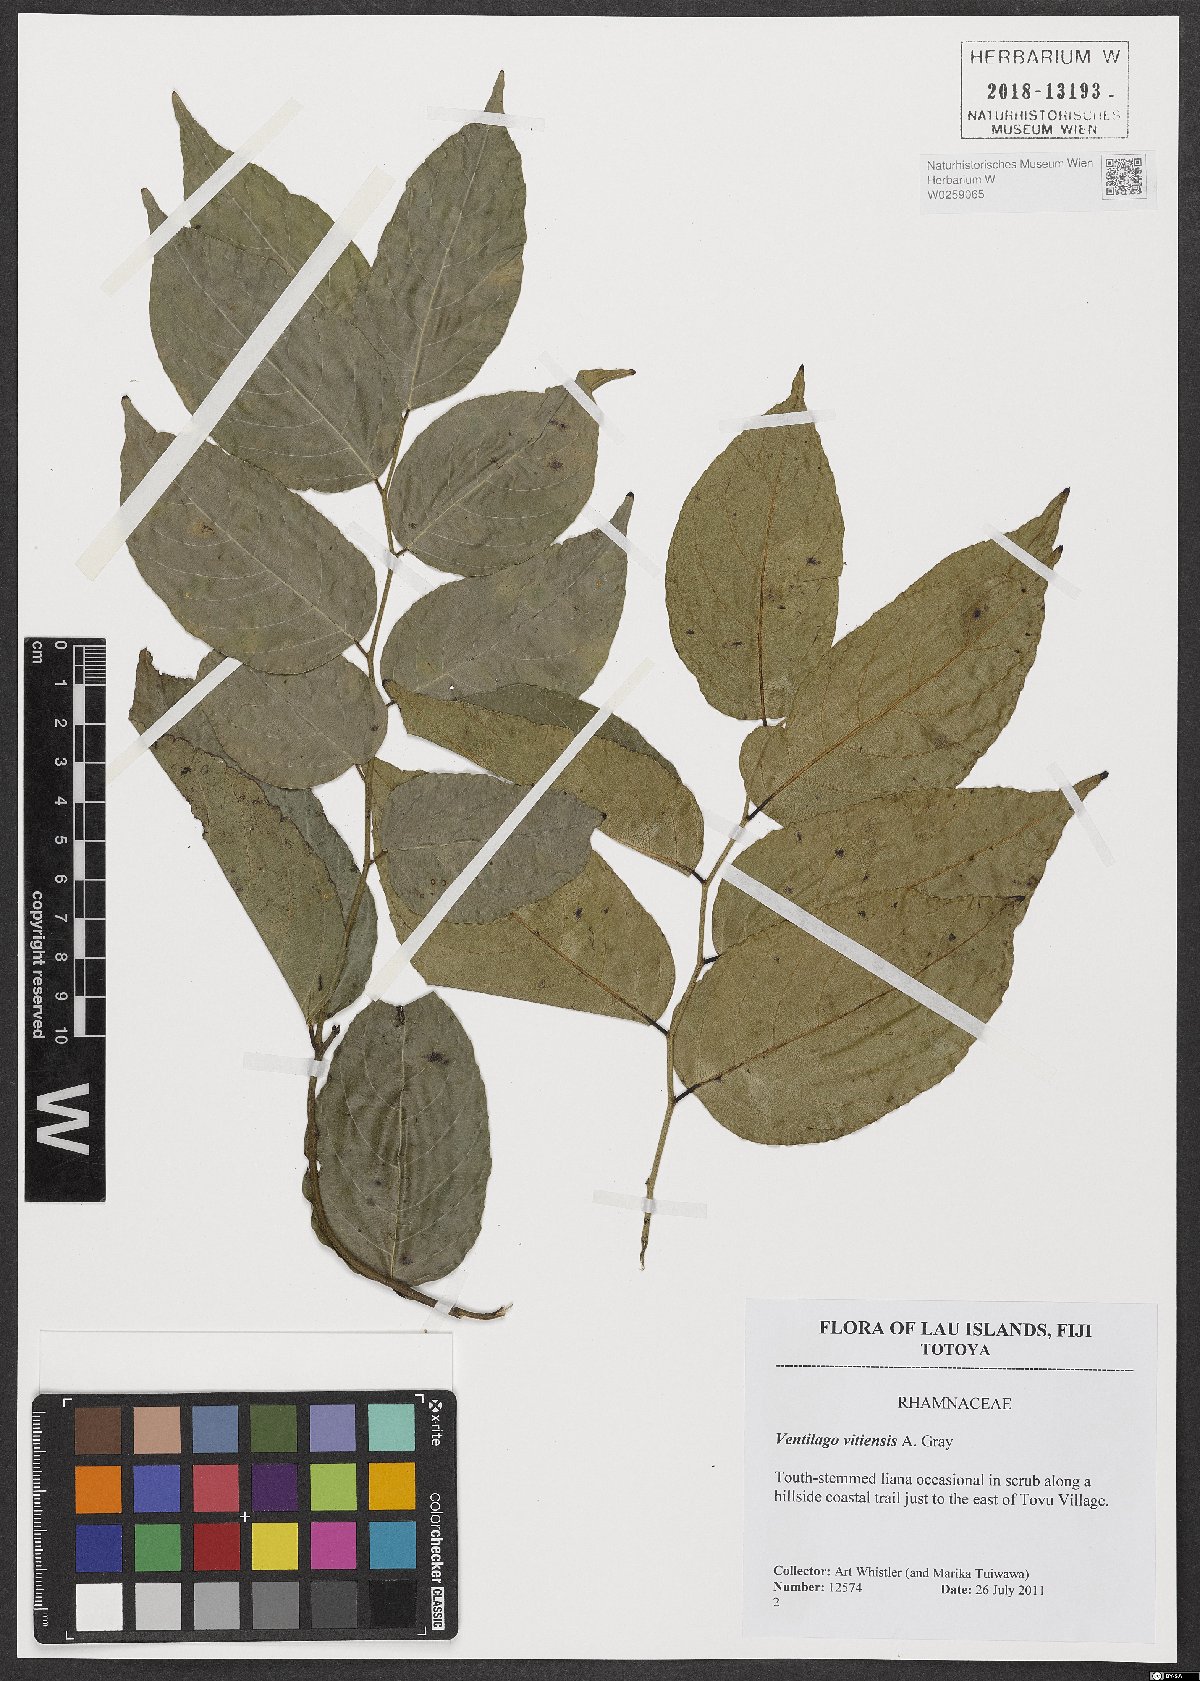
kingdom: Plantae
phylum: Tracheophyta
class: Magnoliopsida
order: Rosales
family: Rhamnaceae
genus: Ventilago
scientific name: Ventilago vitiensis
